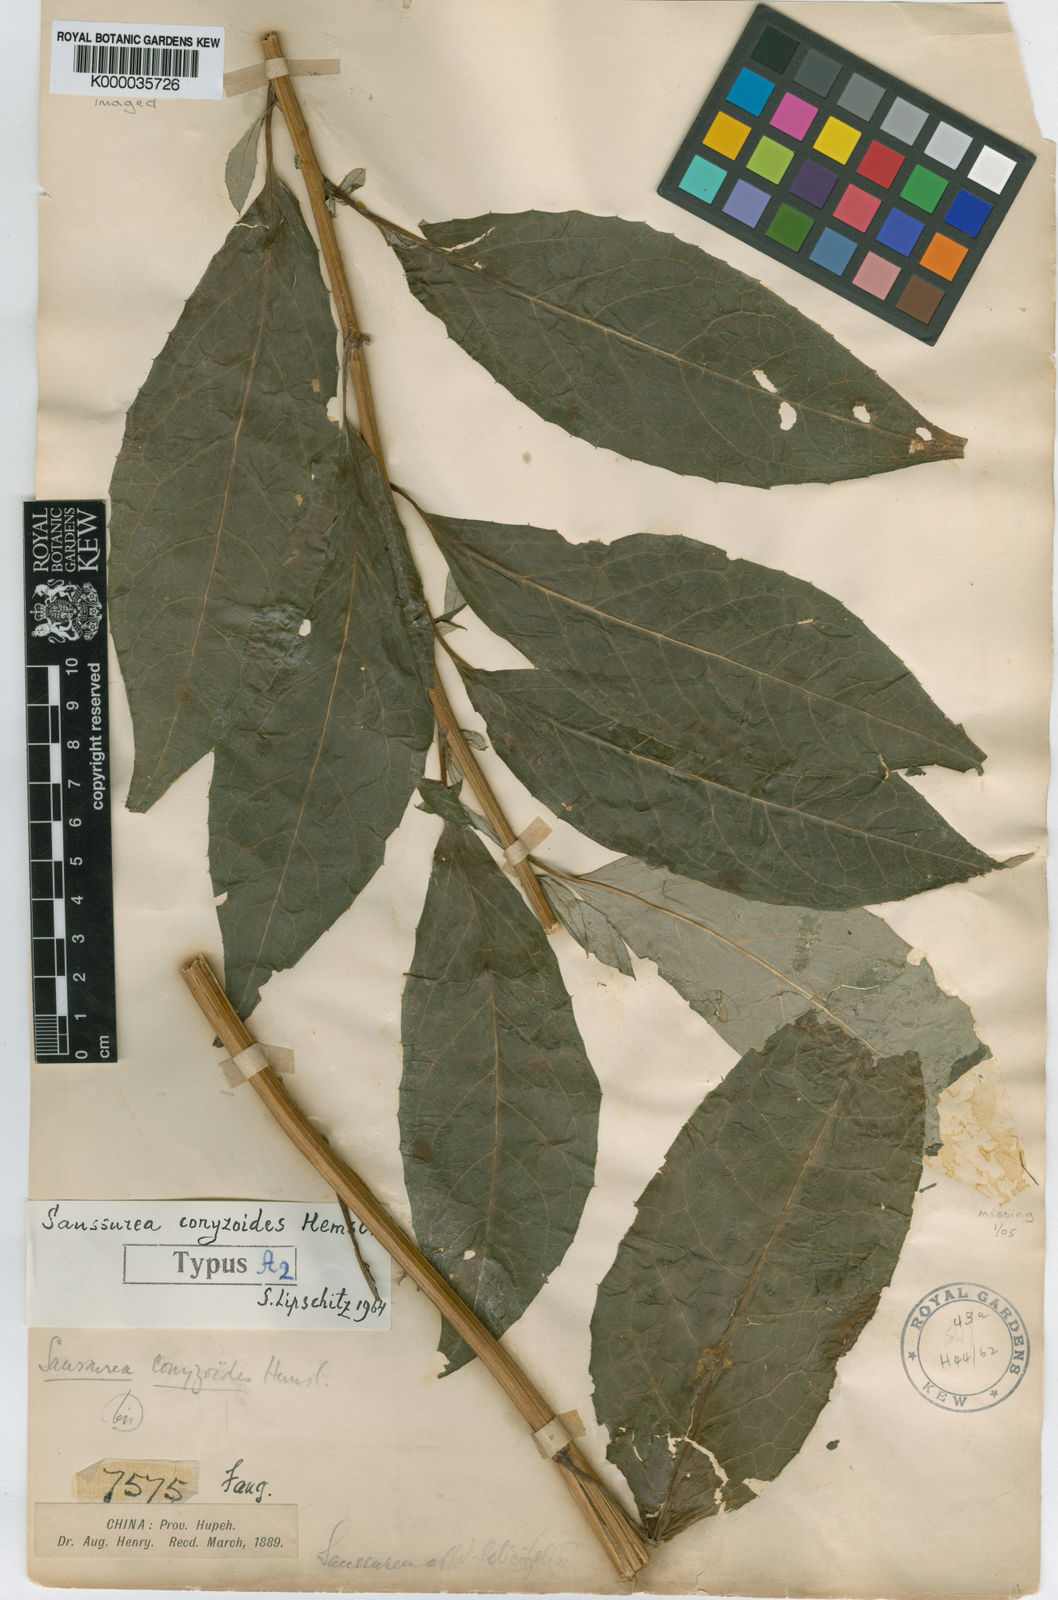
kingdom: Plantae
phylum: Tracheophyta
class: Magnoliopsida
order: Asterales
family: Asteraceae
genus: Saussurea
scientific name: Saussurea conyzoides
